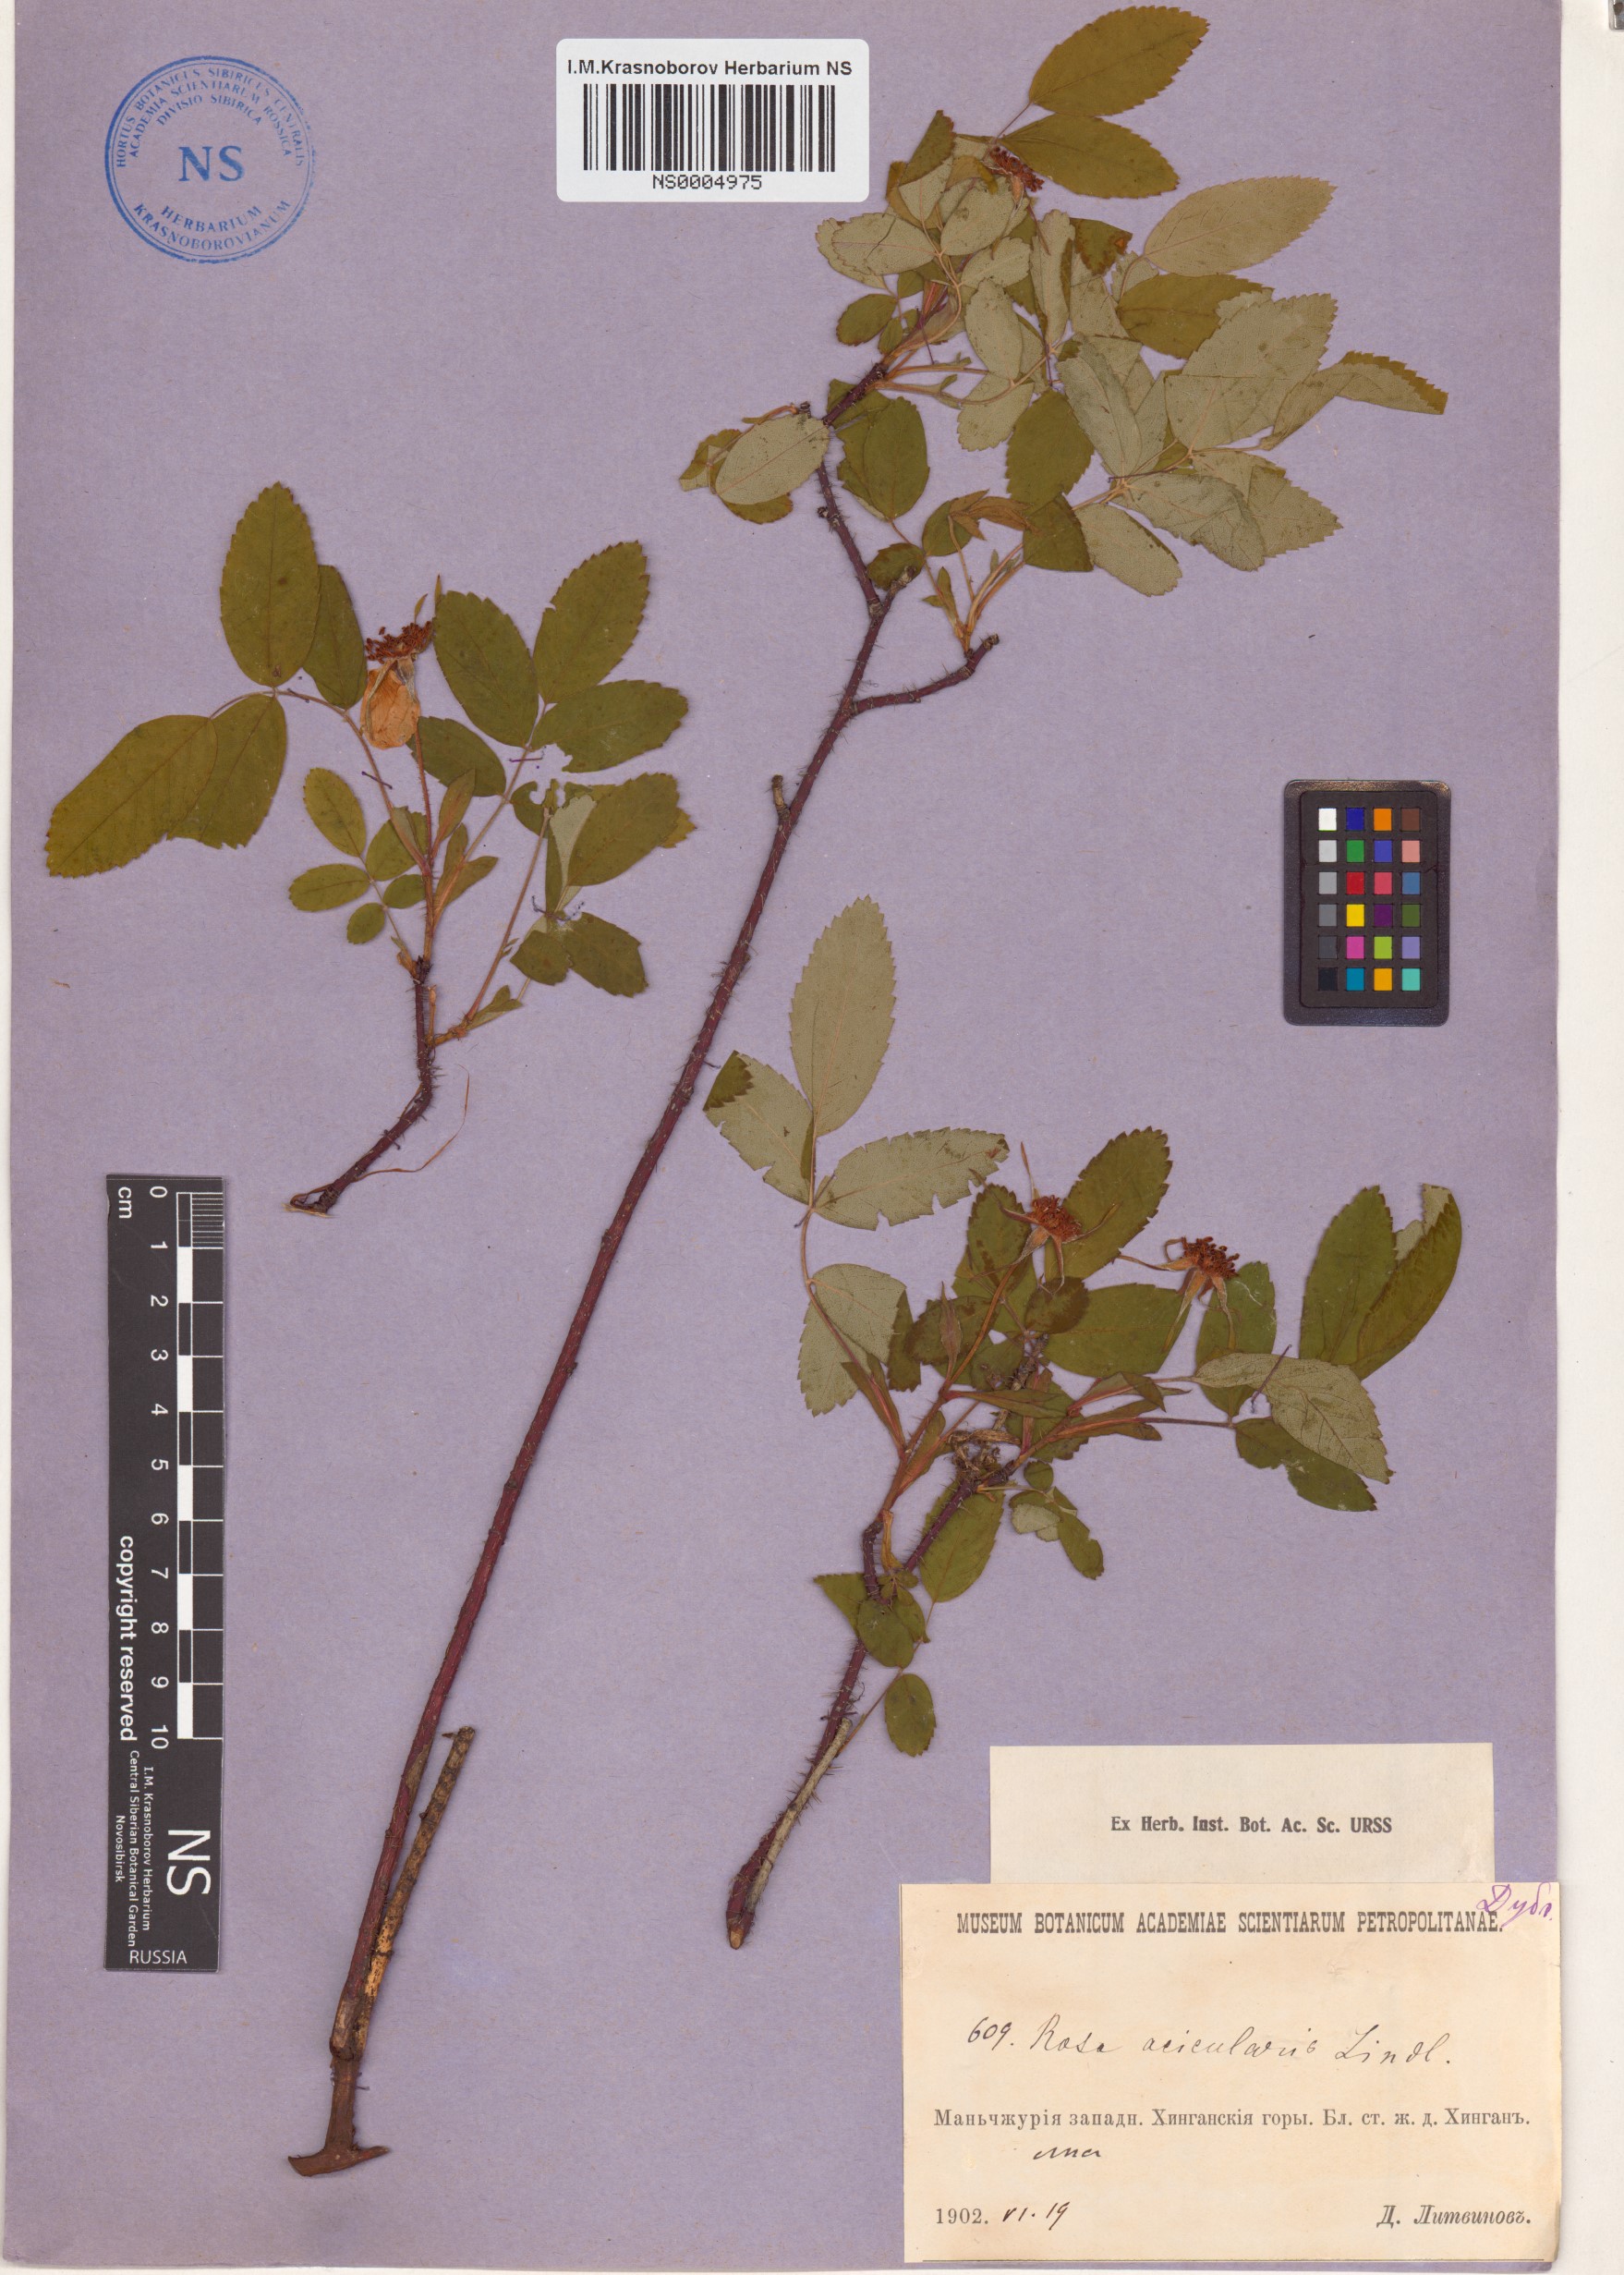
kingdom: Plantae
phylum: Tracheophyta
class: Magnoliopsida
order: Rosales
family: Rosaceae
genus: Rosa
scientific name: Rosa acicularis
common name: Prickly rose
